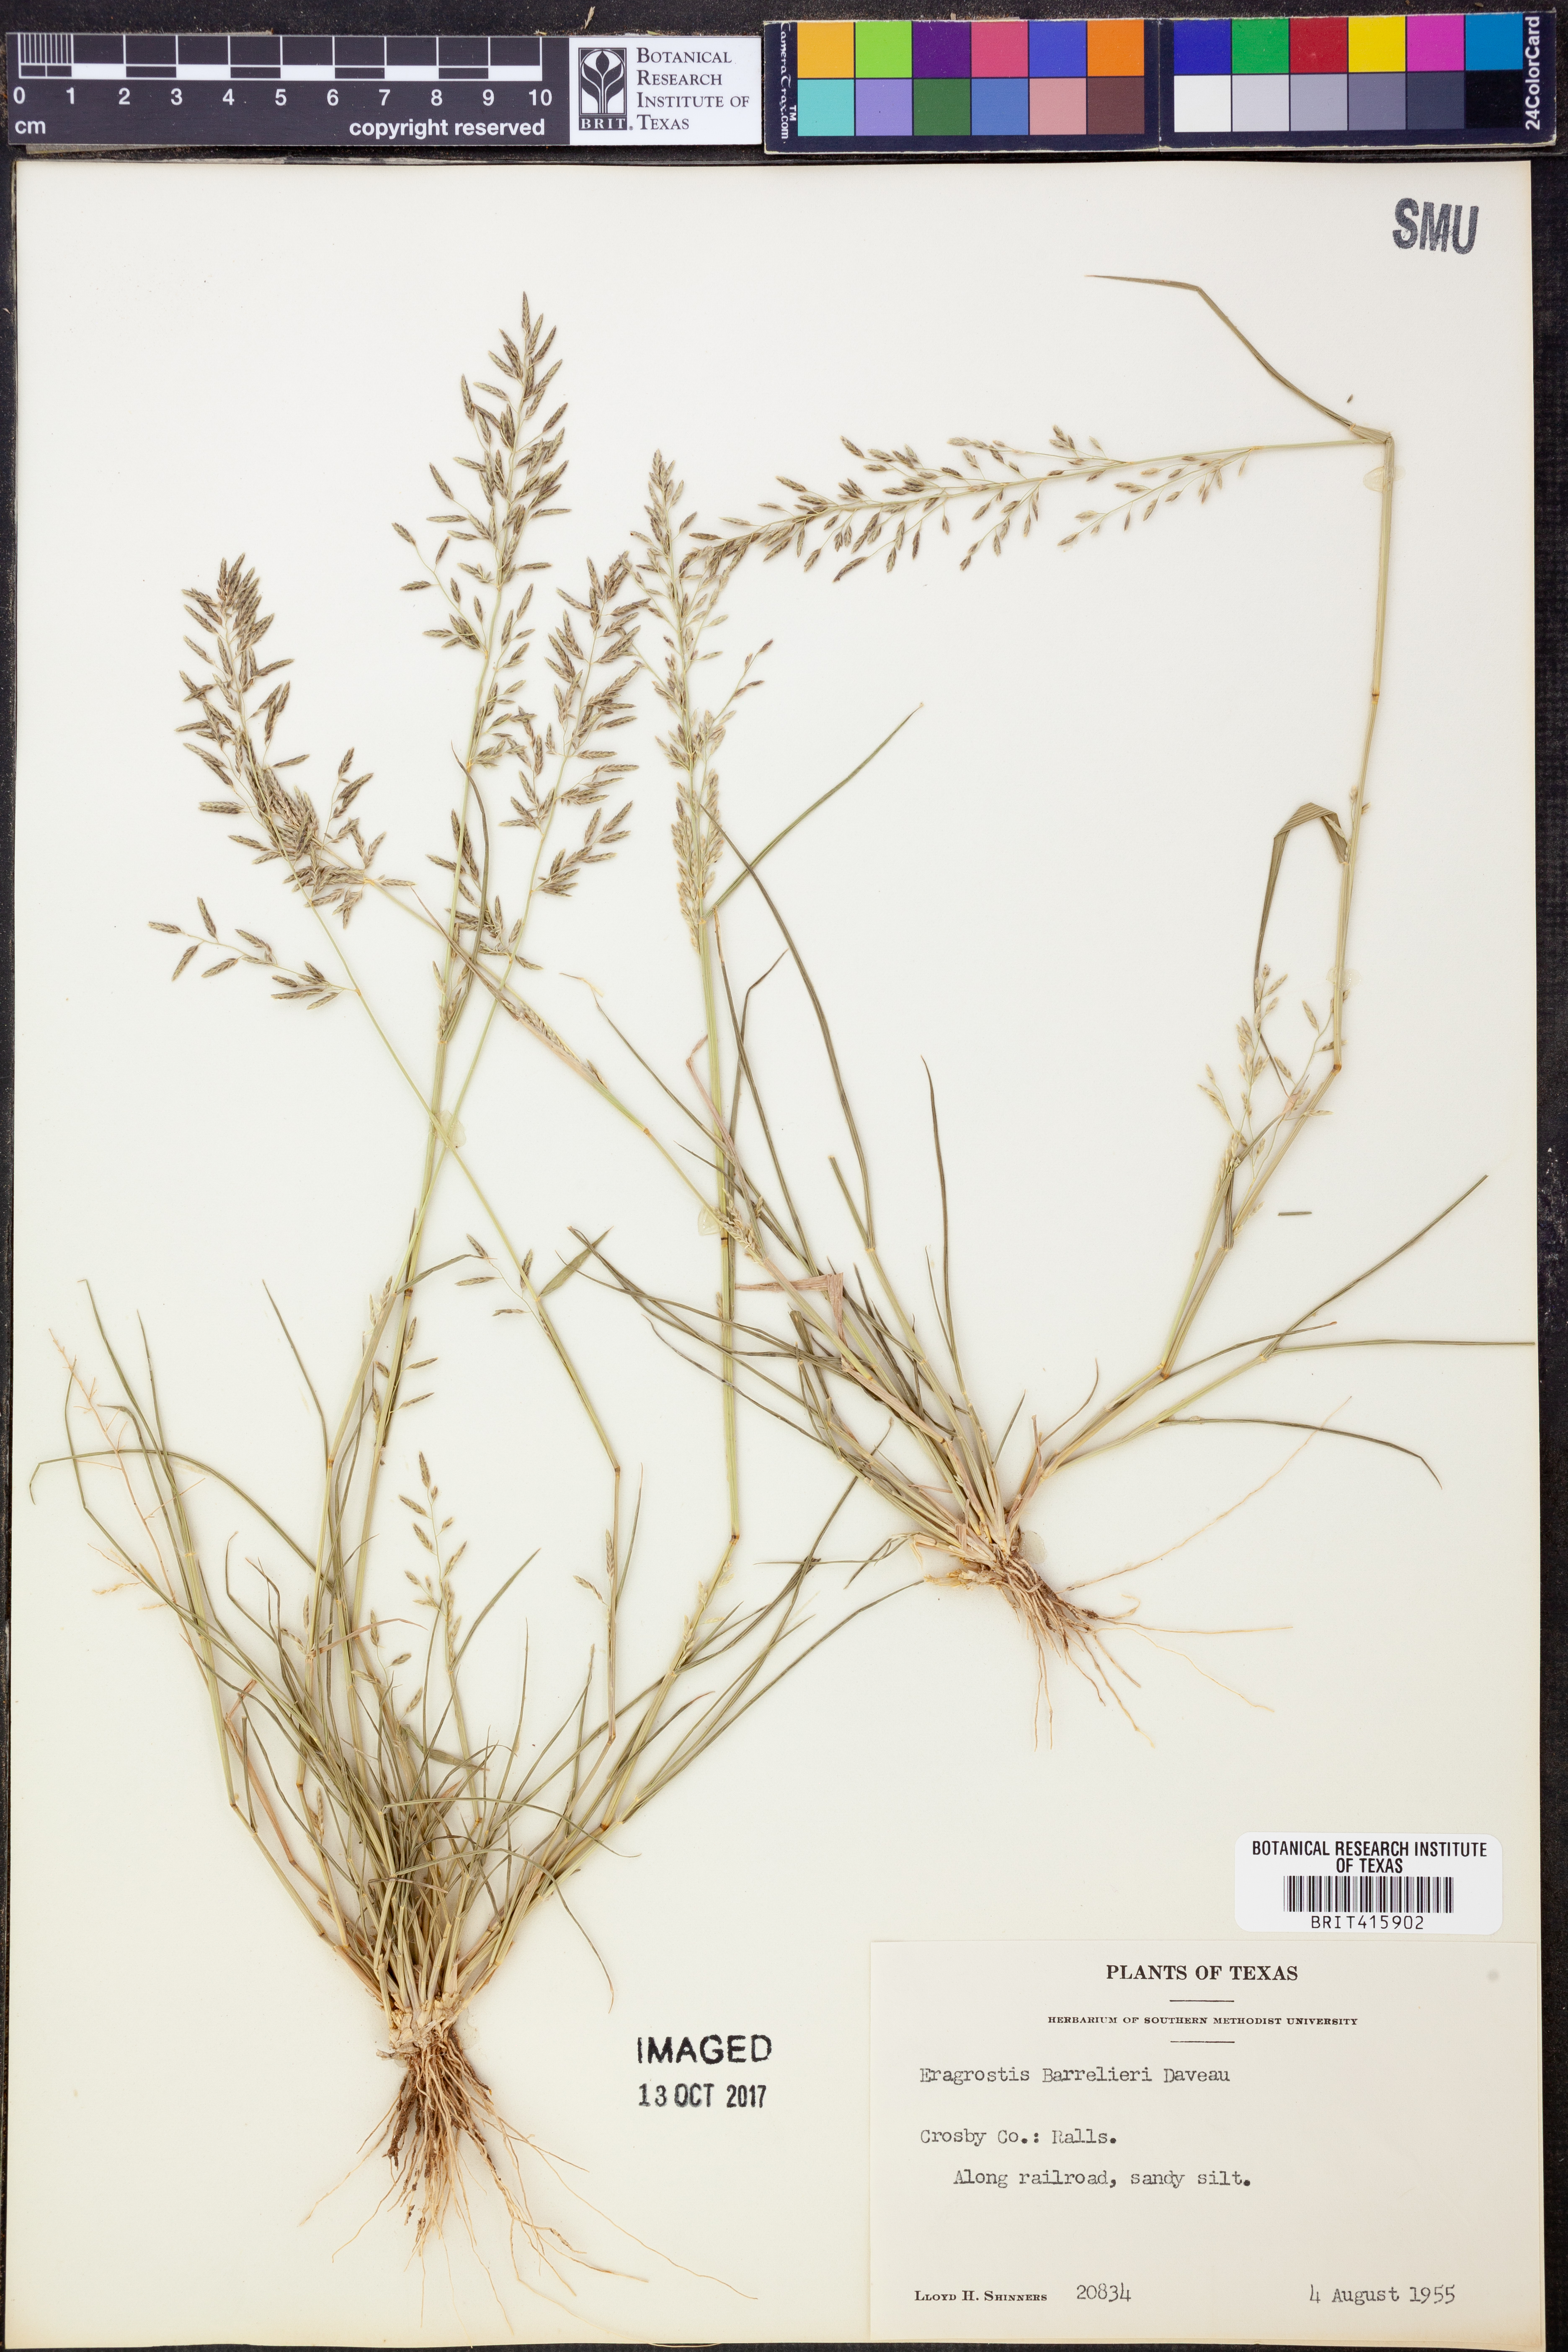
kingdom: Plantae
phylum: Tracheophyta
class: Liliopsida
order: Poales
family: Poaceae
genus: Eragrostis
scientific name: Eragrostis barrelieri
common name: Mediterranean lovegrass
